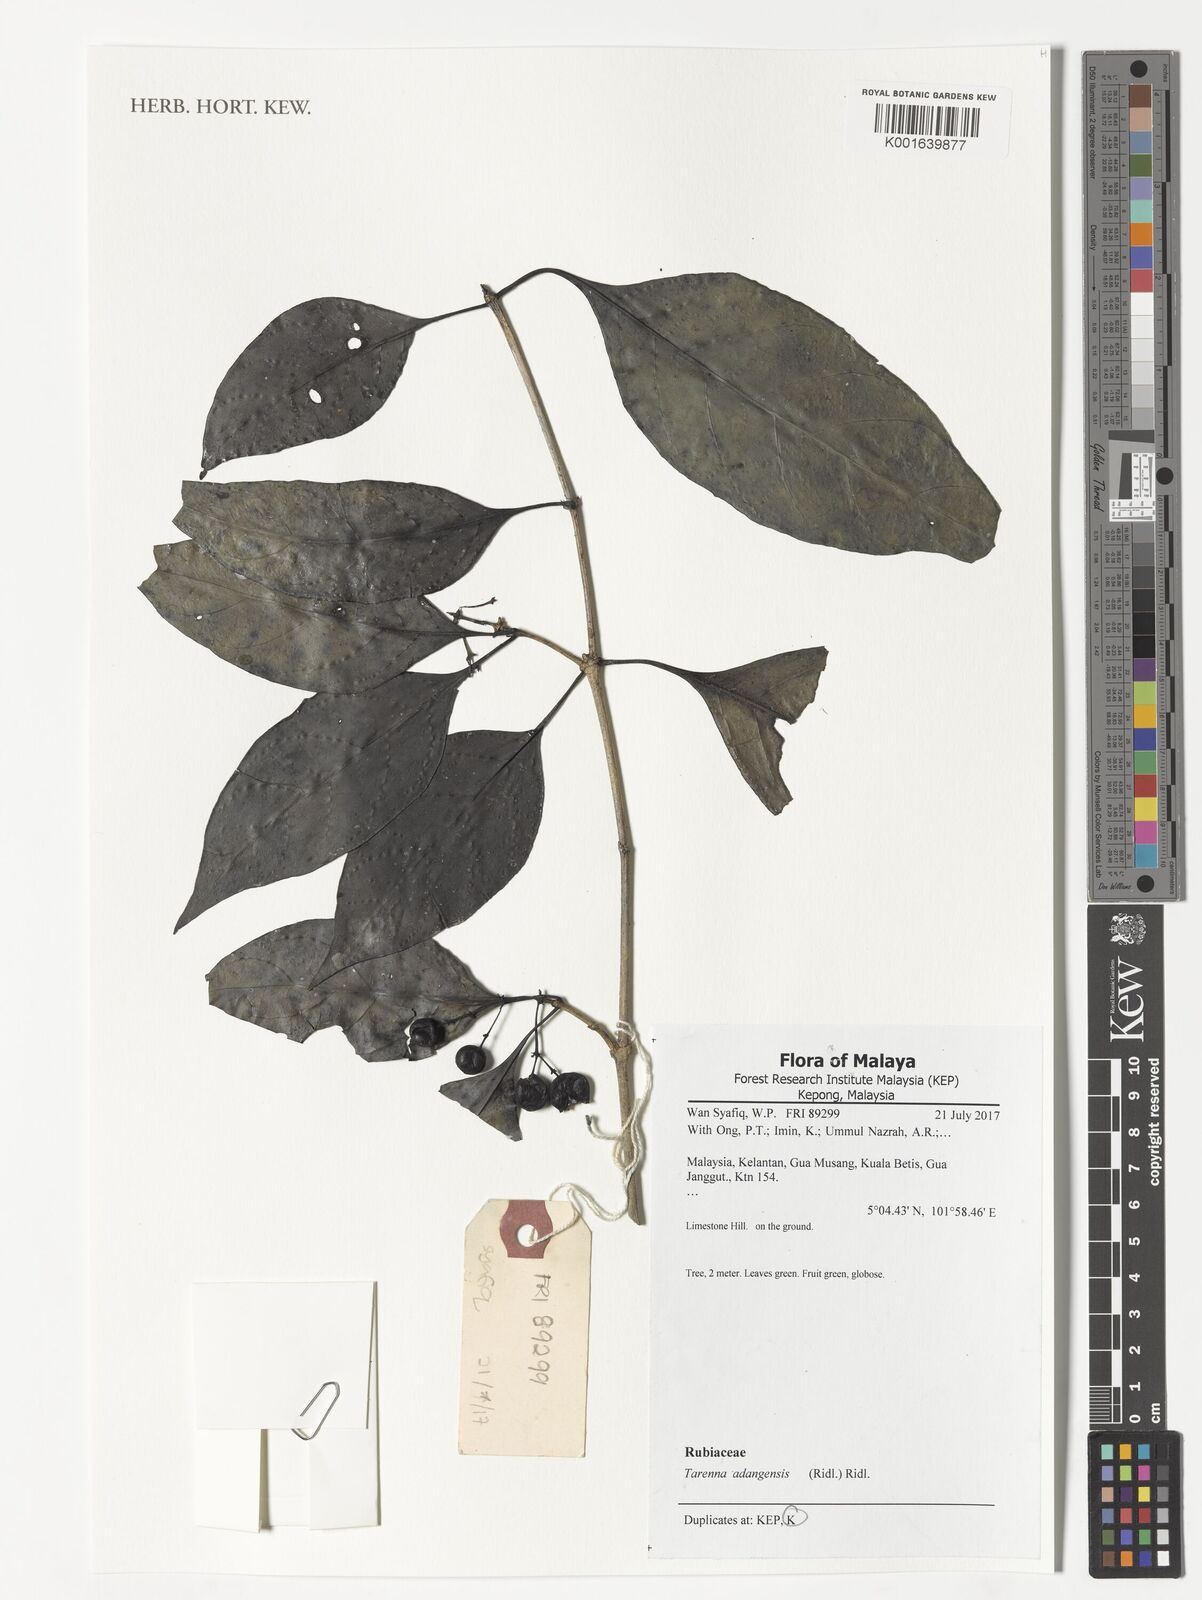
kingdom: Plantae
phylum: Tracheophyta
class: Magnoliopsida
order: Gentianales
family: Rubiaceae
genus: Tarenna
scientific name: Tarenna adangensis
